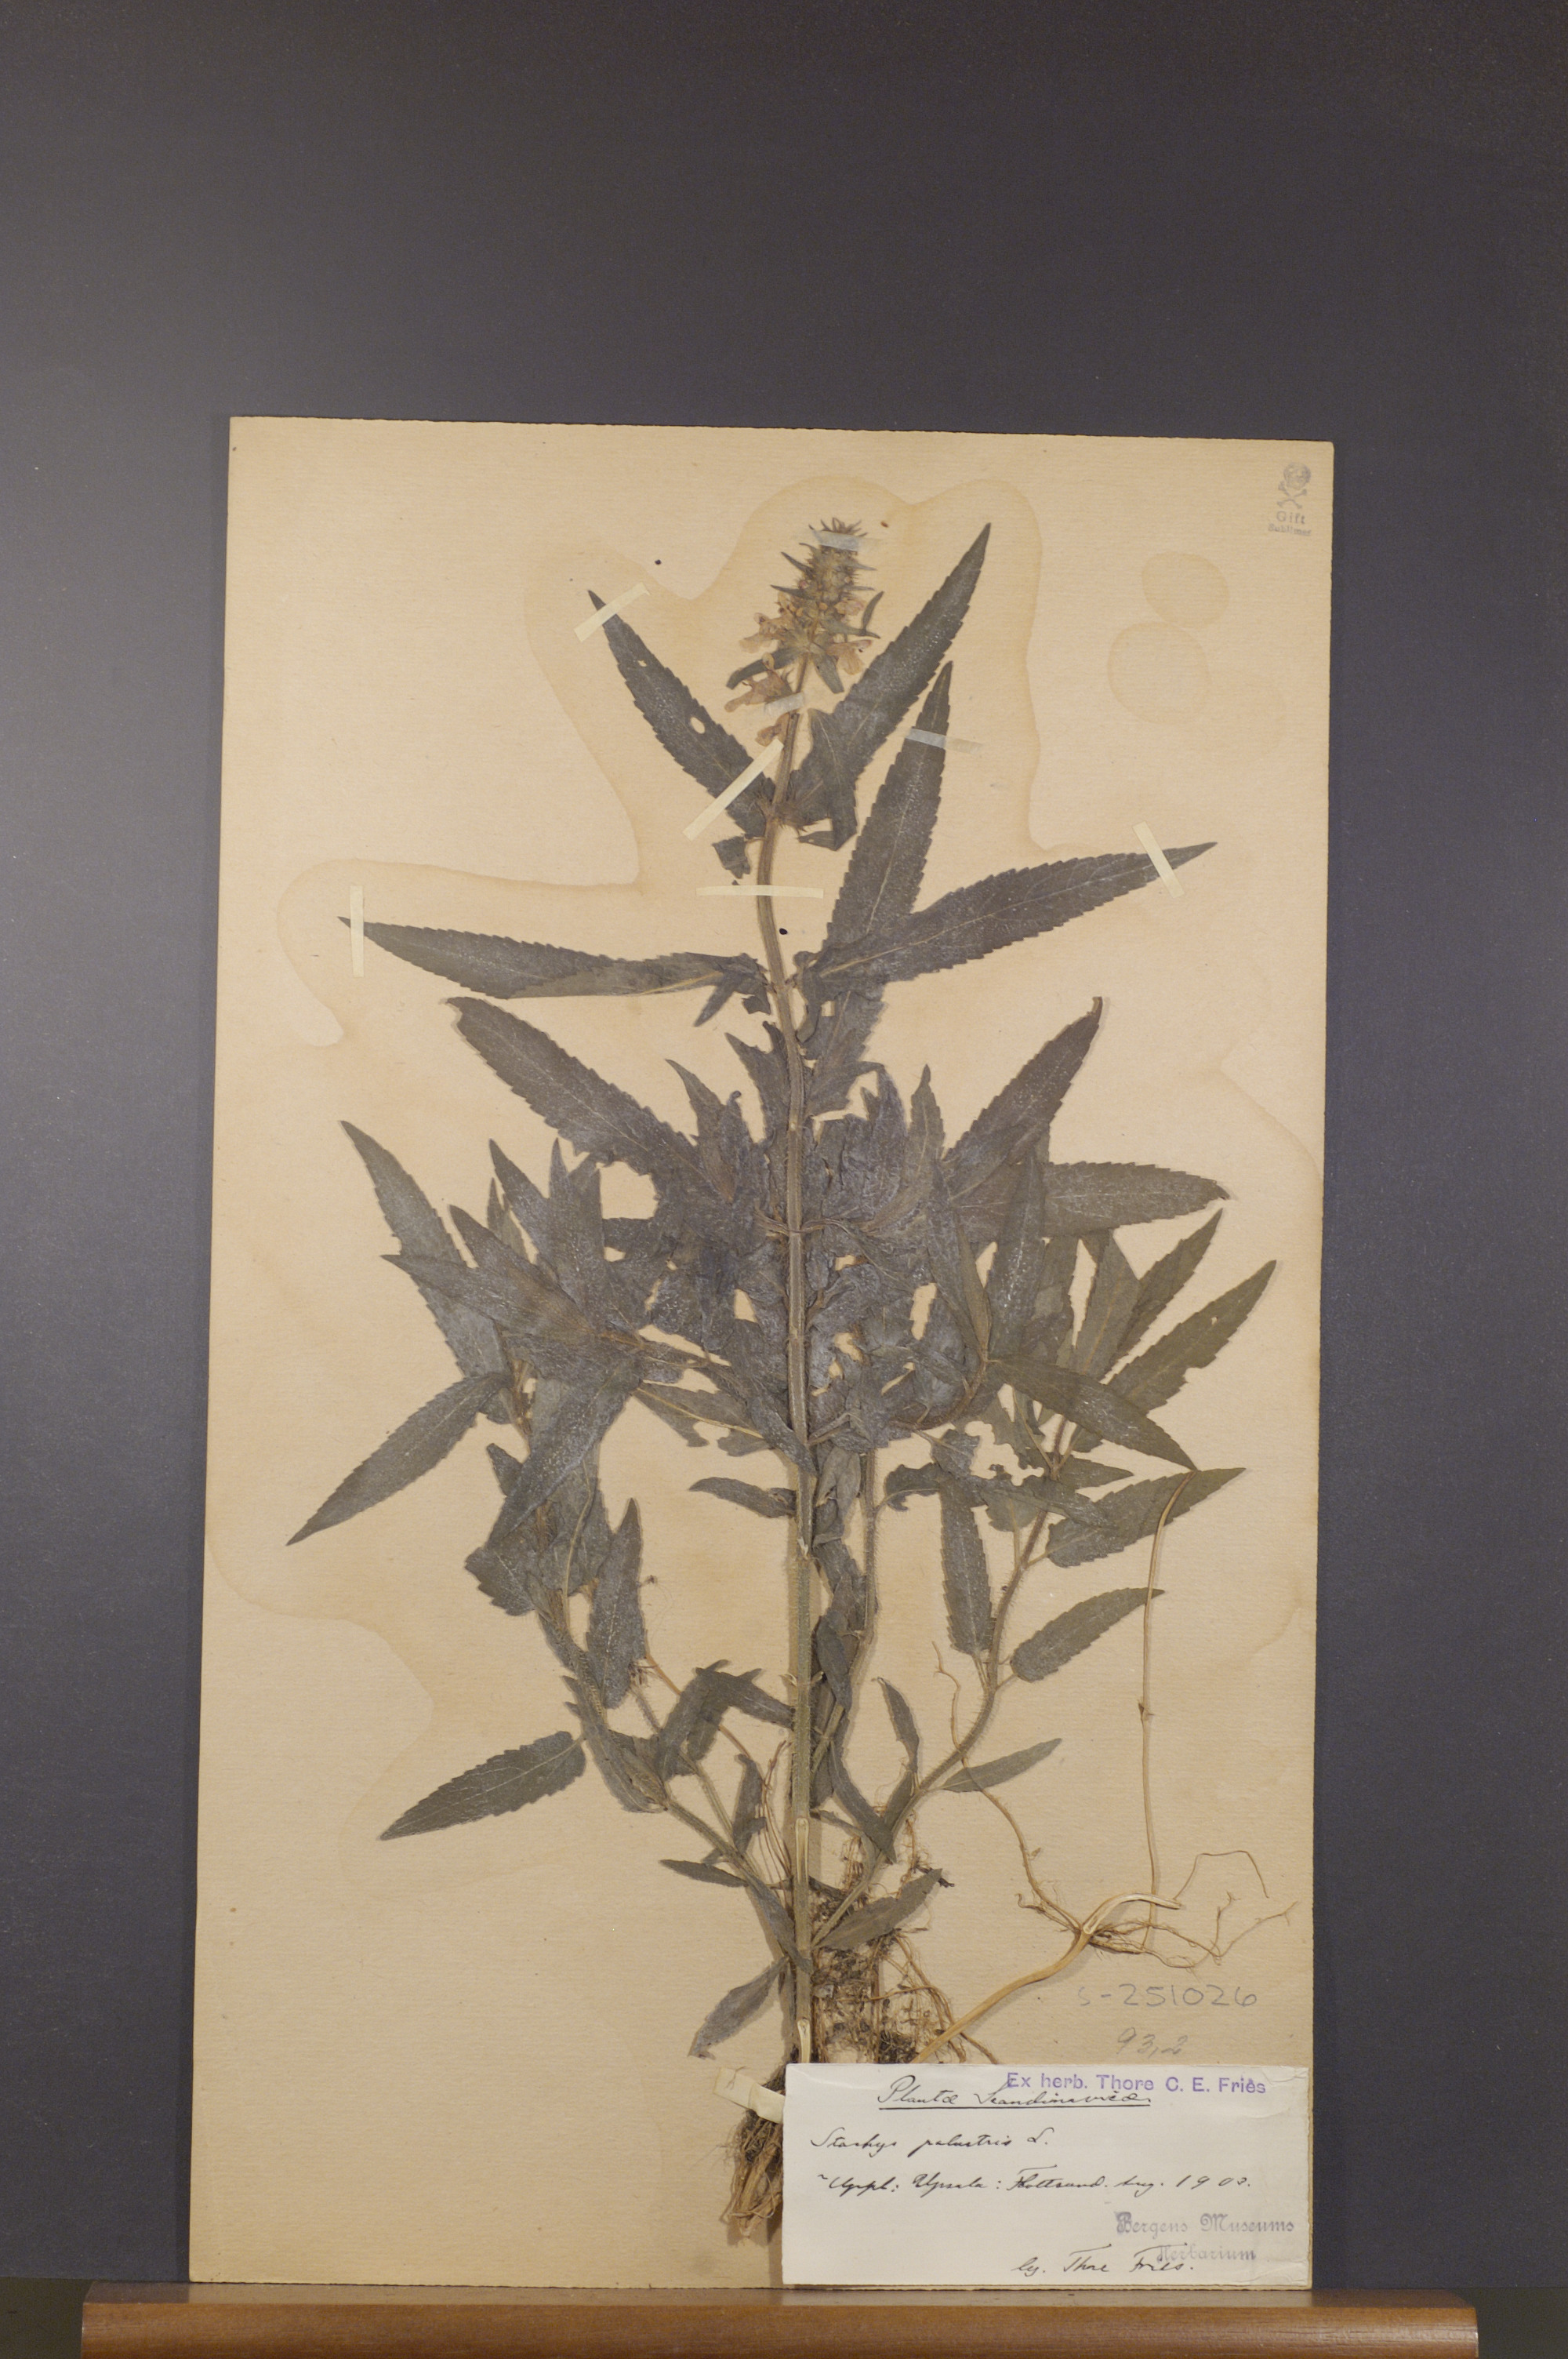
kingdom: Plantae
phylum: Tracheophyta
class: Magnoliopsida
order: Lamiales
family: Lamiaceae
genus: Stachys
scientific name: Stachys palustris
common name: Marsh woundwort
